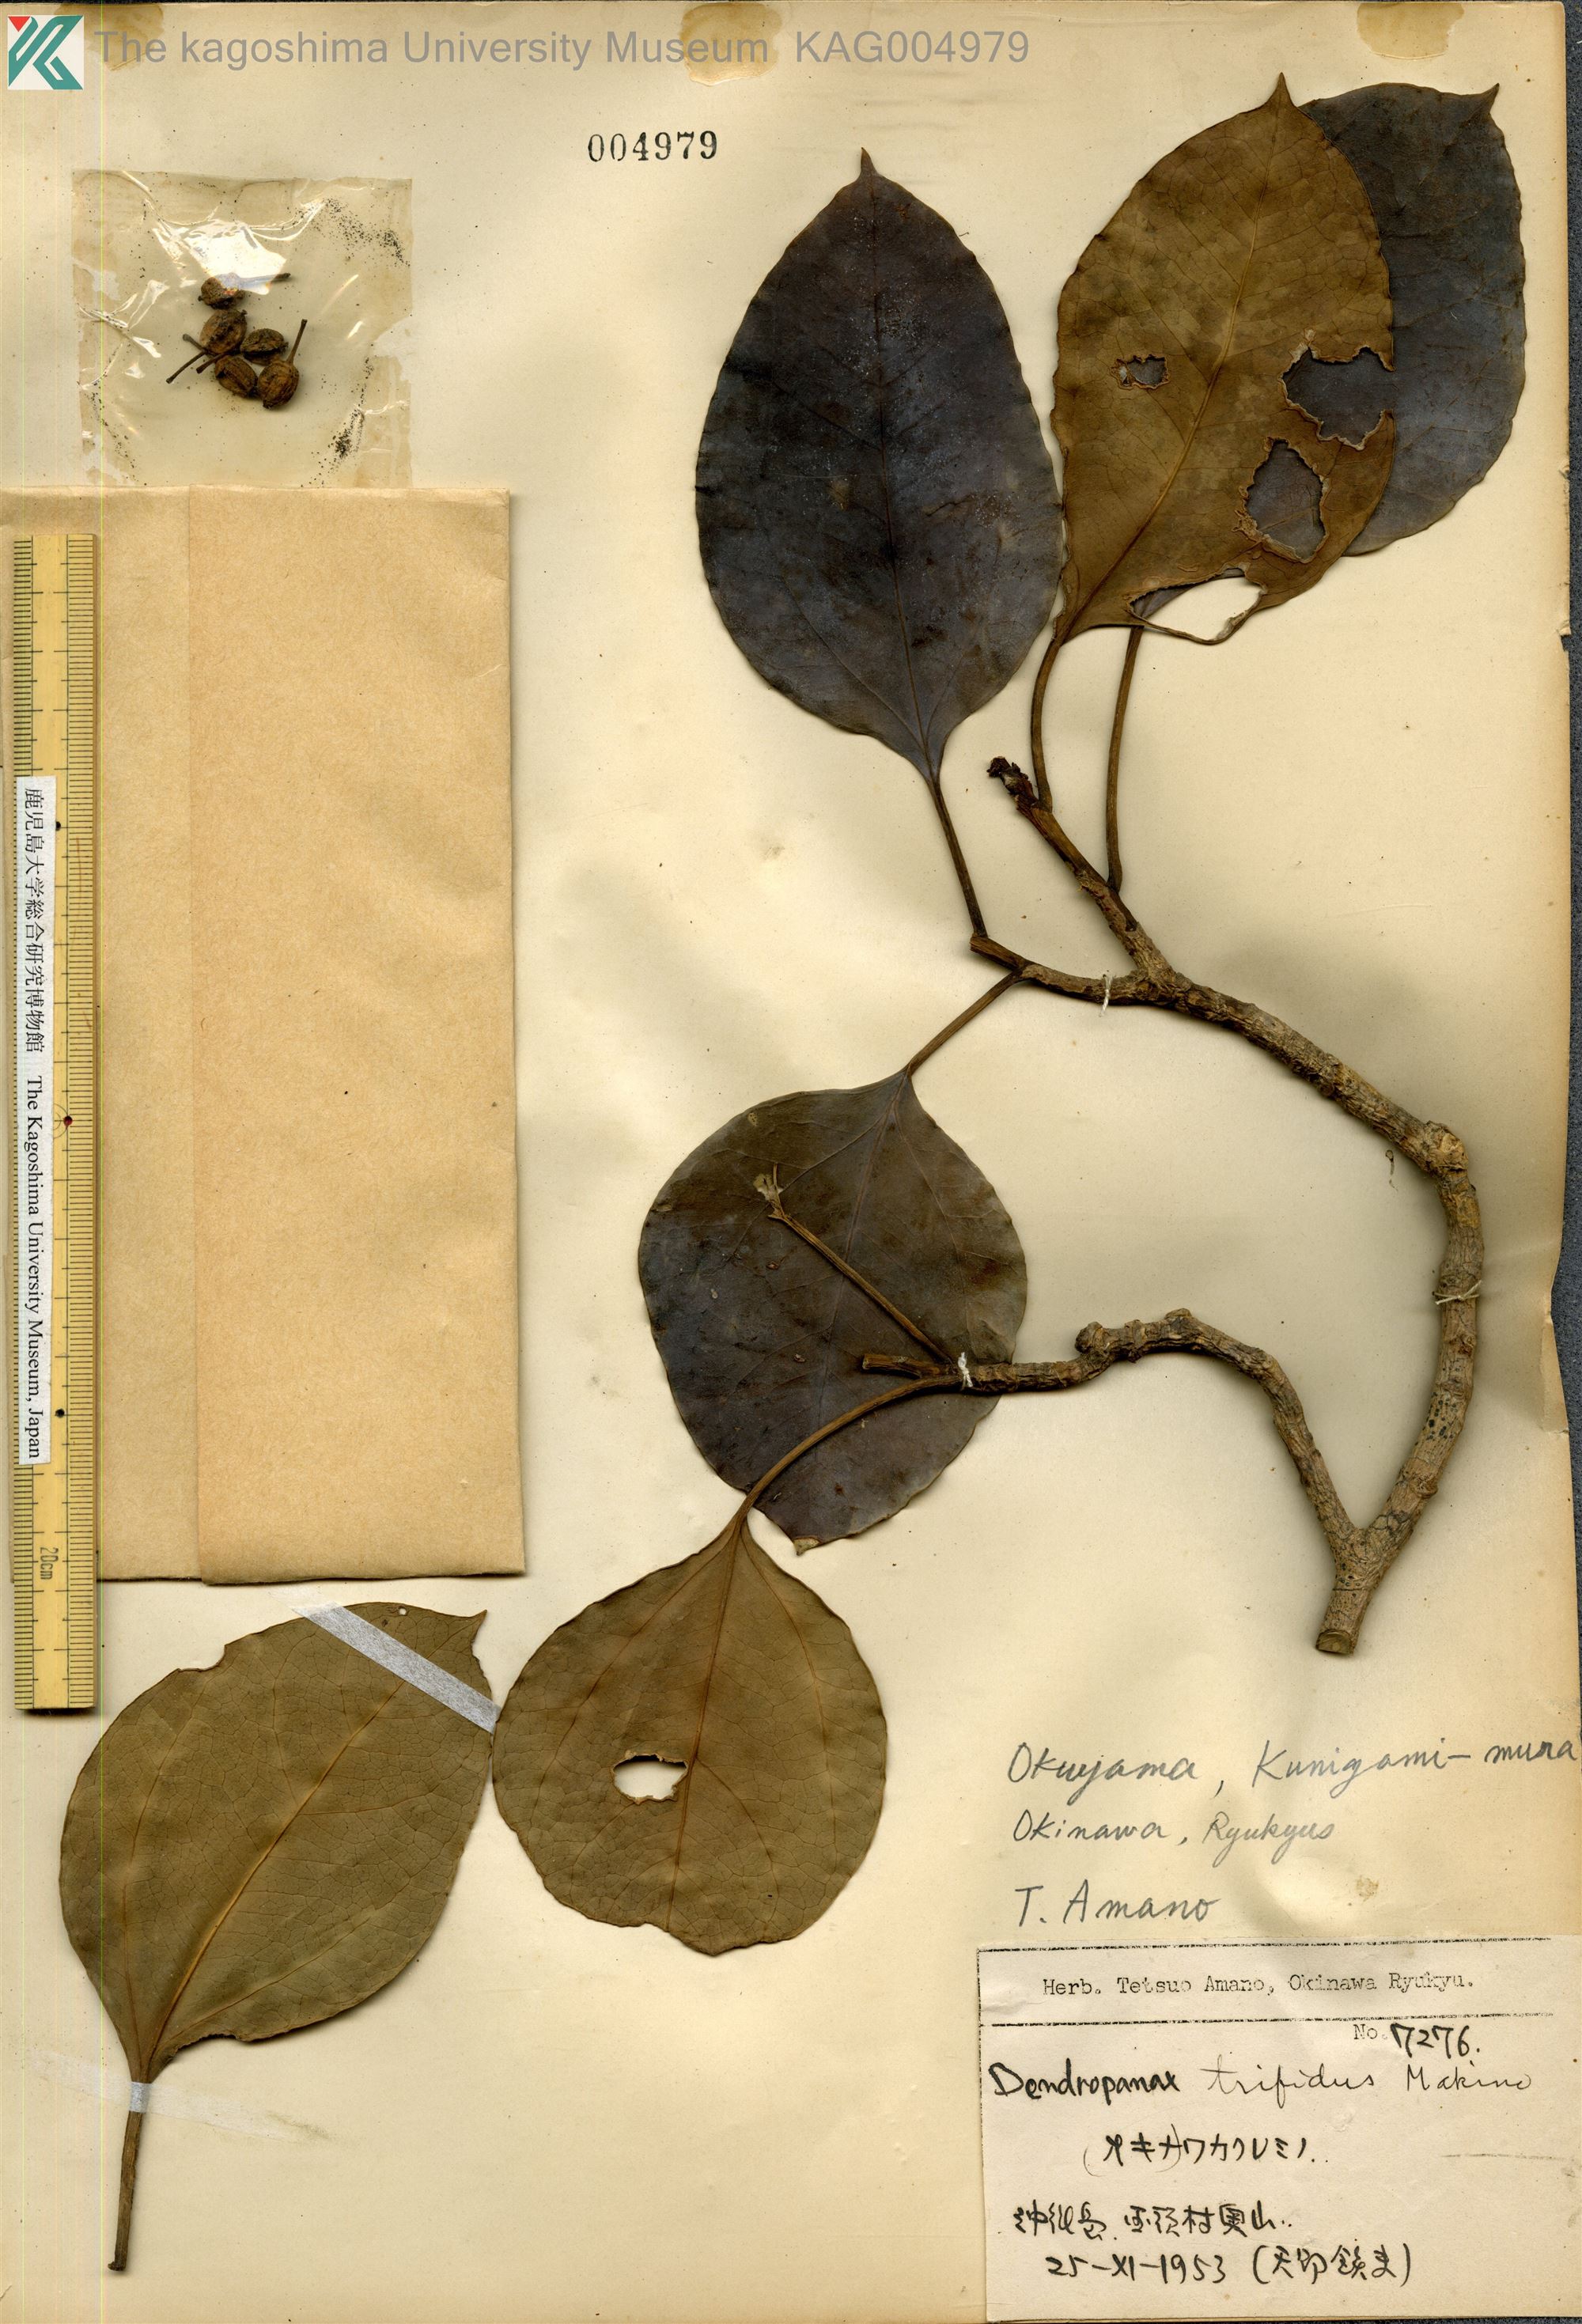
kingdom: Plantae
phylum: Tracheophyta
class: Magnoliopsida
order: Apiales
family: Araliaceae
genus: Dendropanax
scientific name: Dendropanax trifidus
